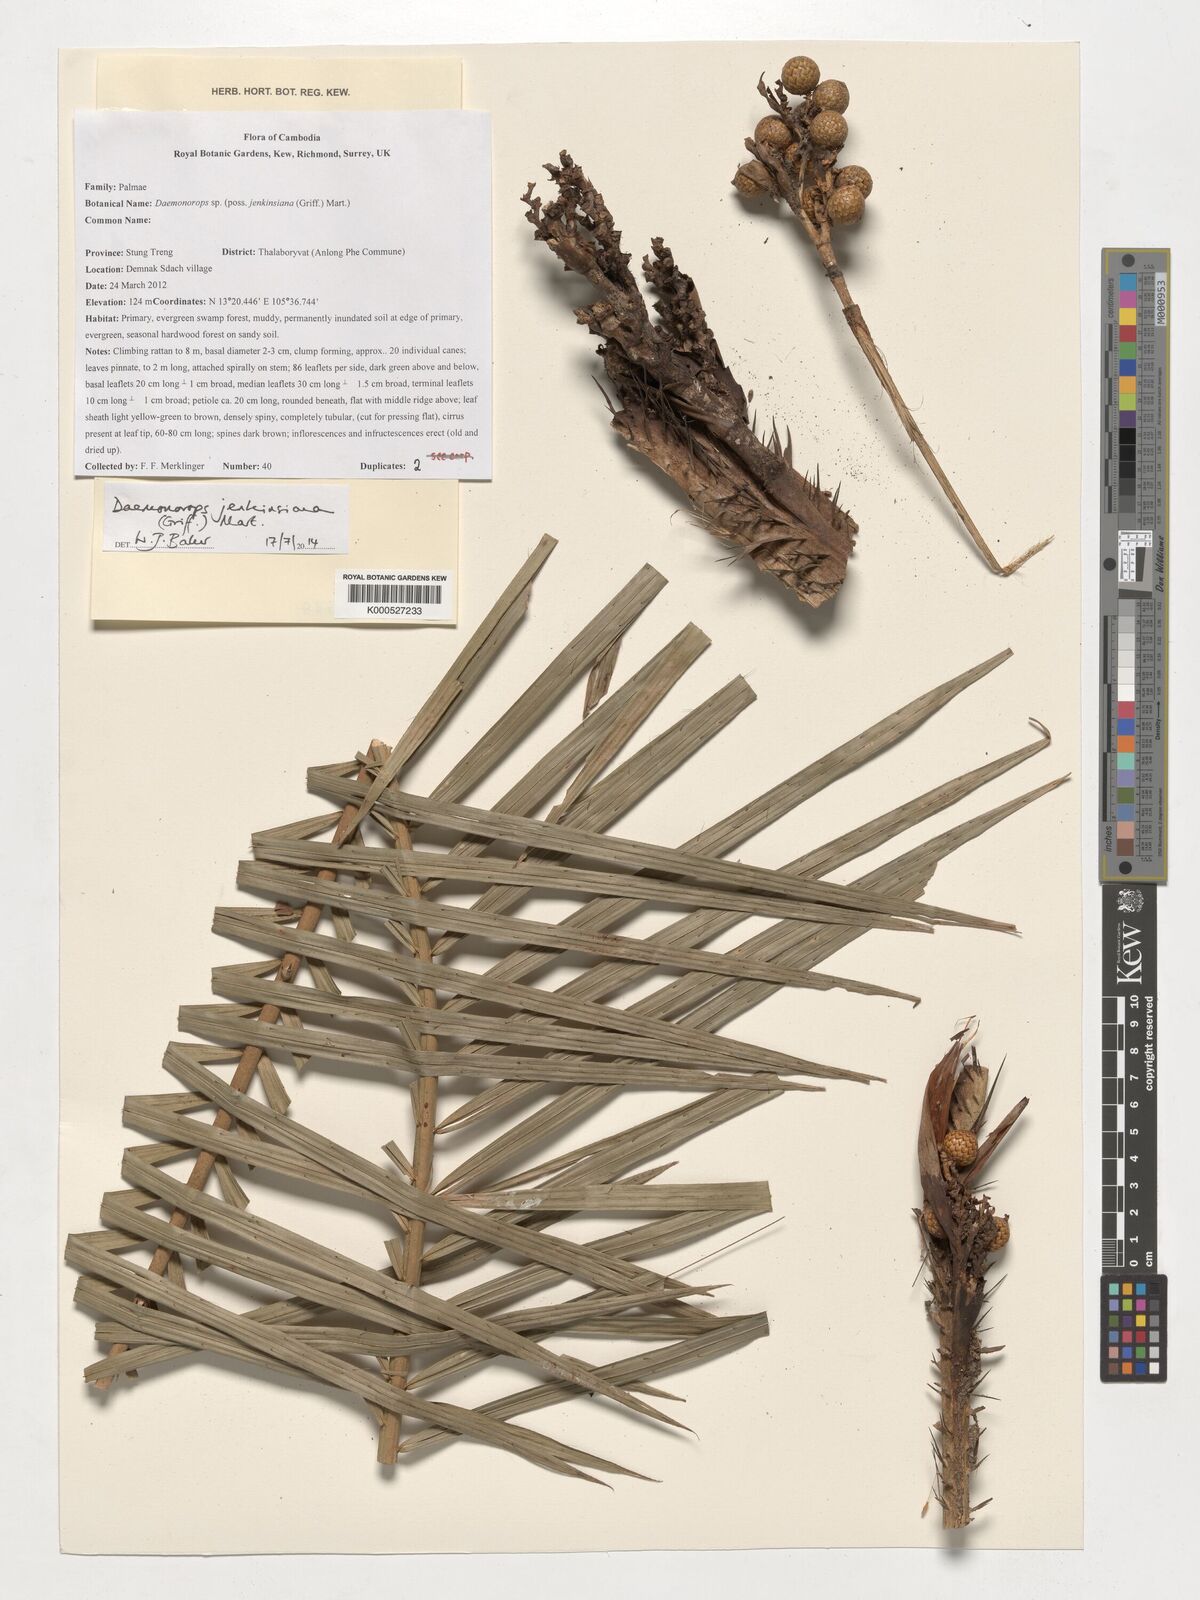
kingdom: Plantae
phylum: Tracheophyta
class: Liliopsida
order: Arecales
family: Arecaceae
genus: Calamus
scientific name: Calamus melanochaetes
